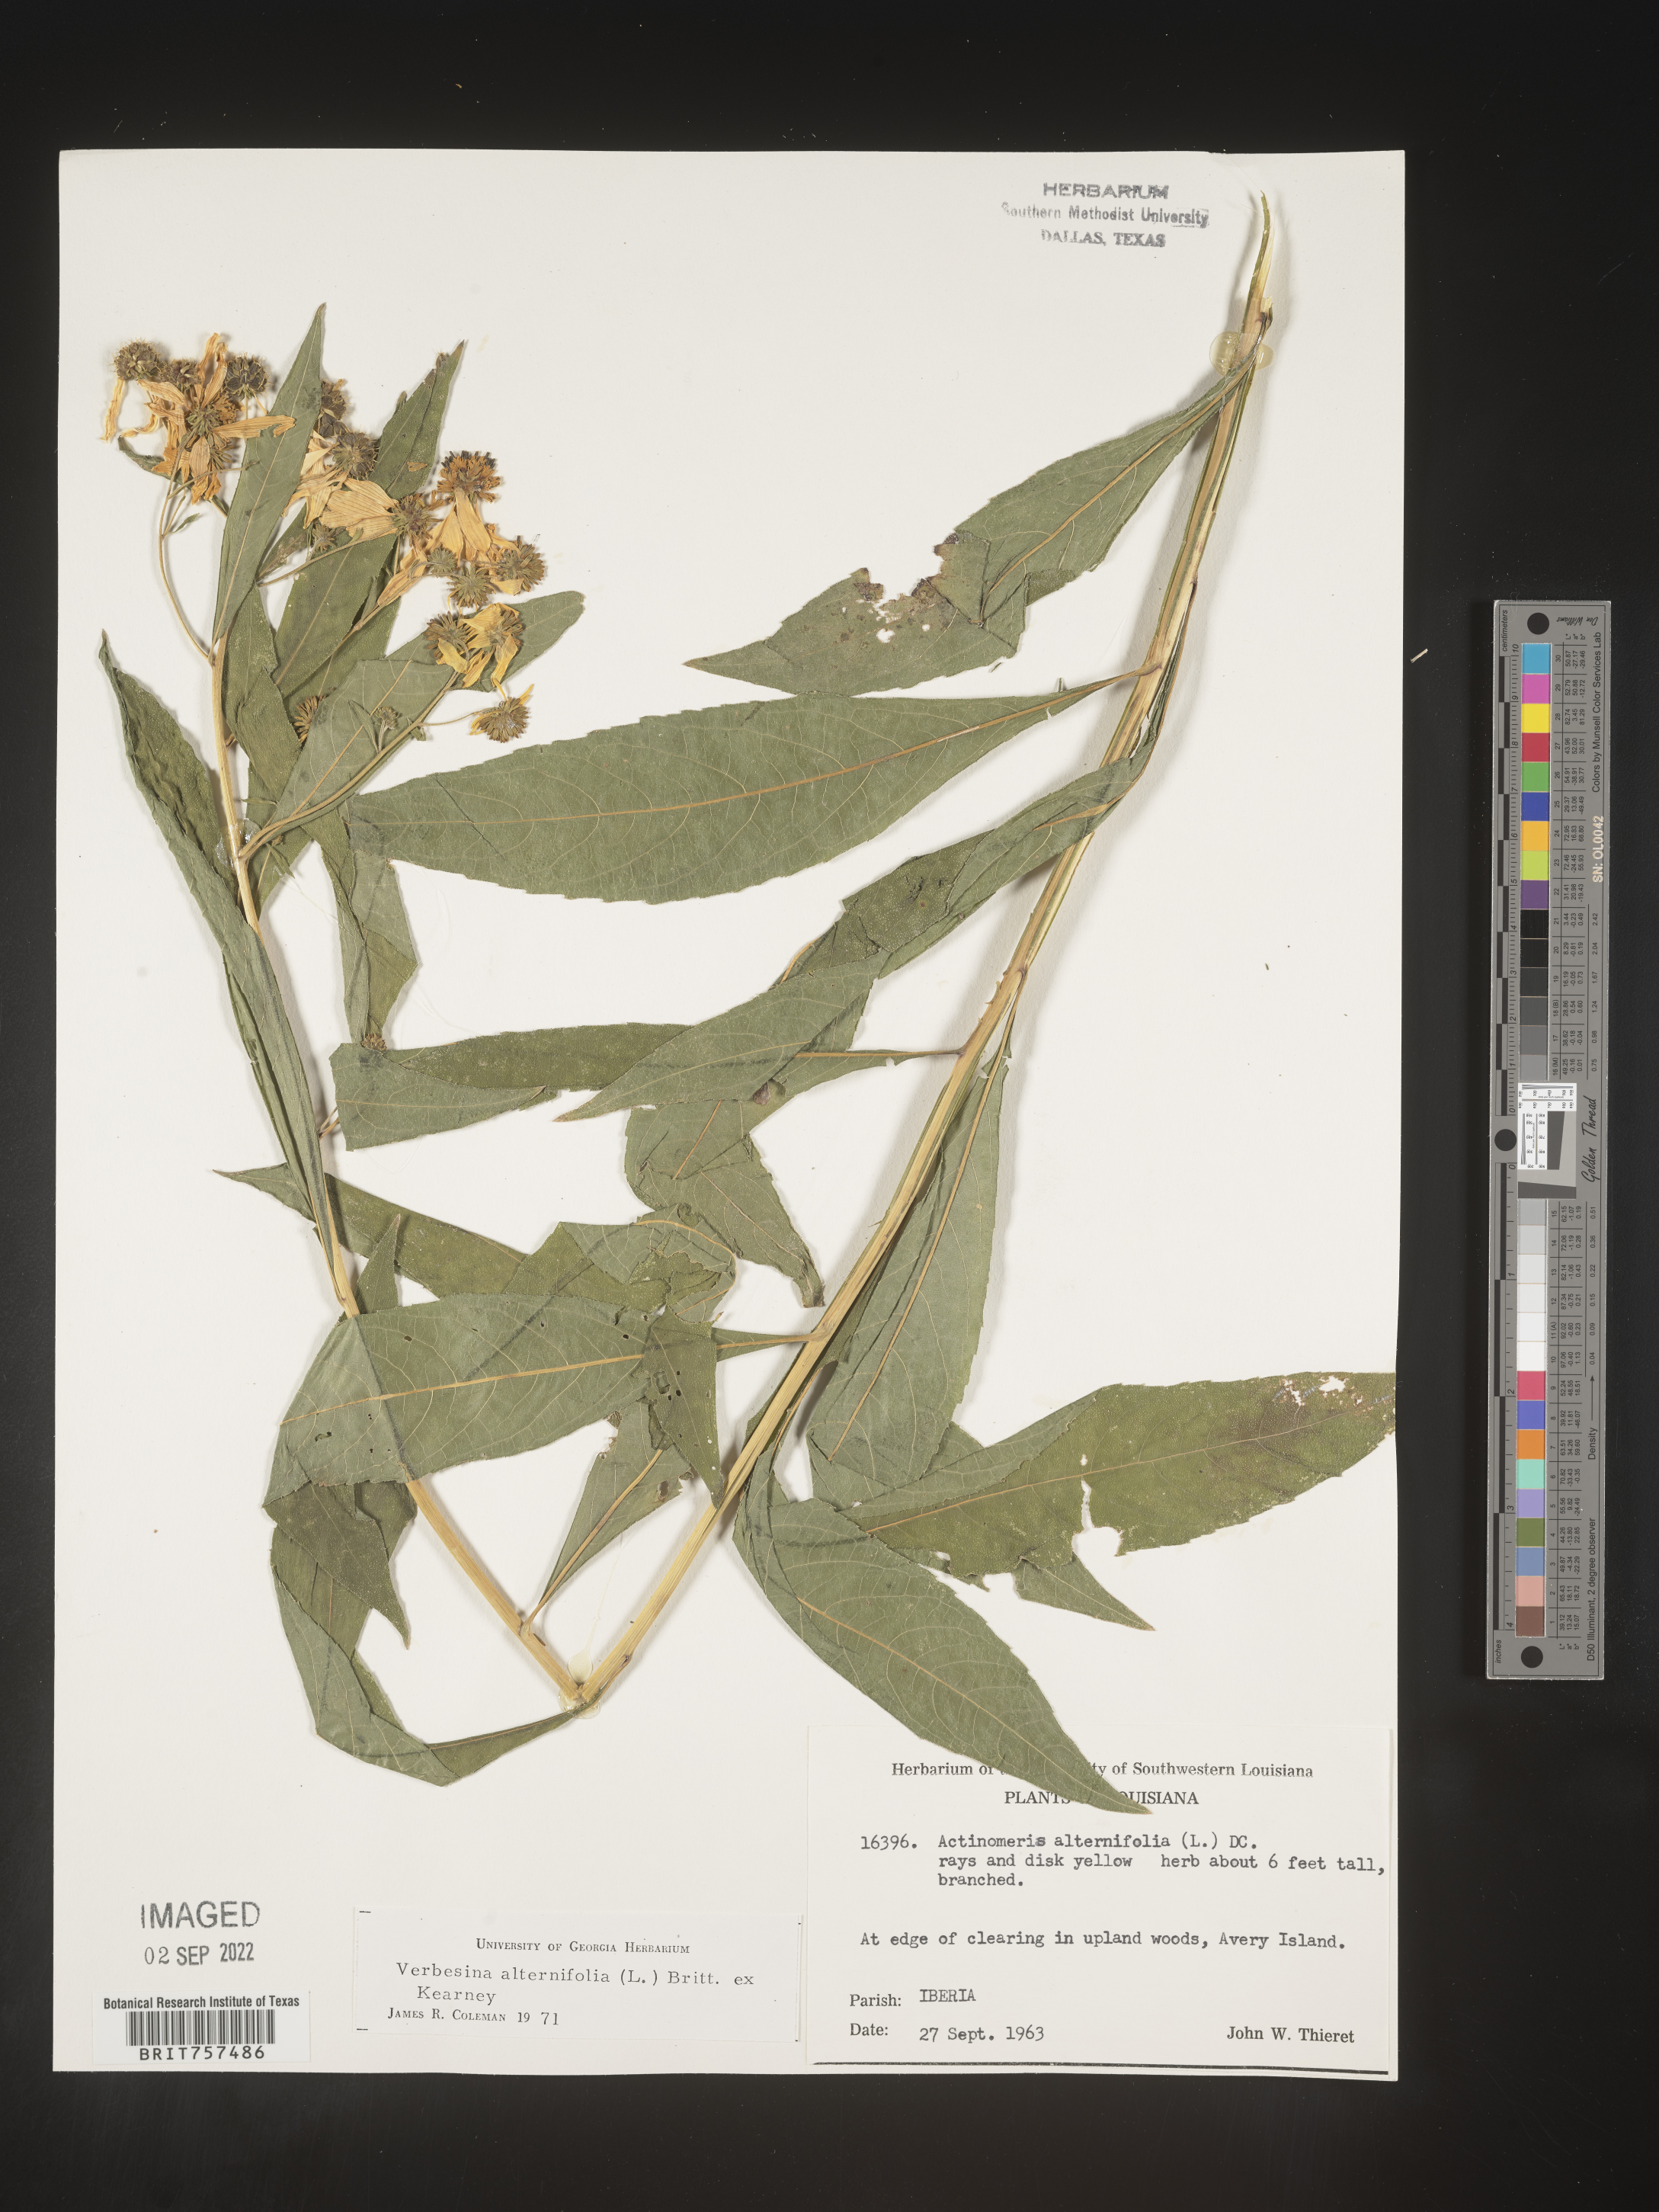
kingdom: Plantae
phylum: Tracheophyta
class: Magnoliopsida
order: Asterales
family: Asteraceae
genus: Verbesina
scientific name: Verbesina alternifolia
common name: Wingstem
